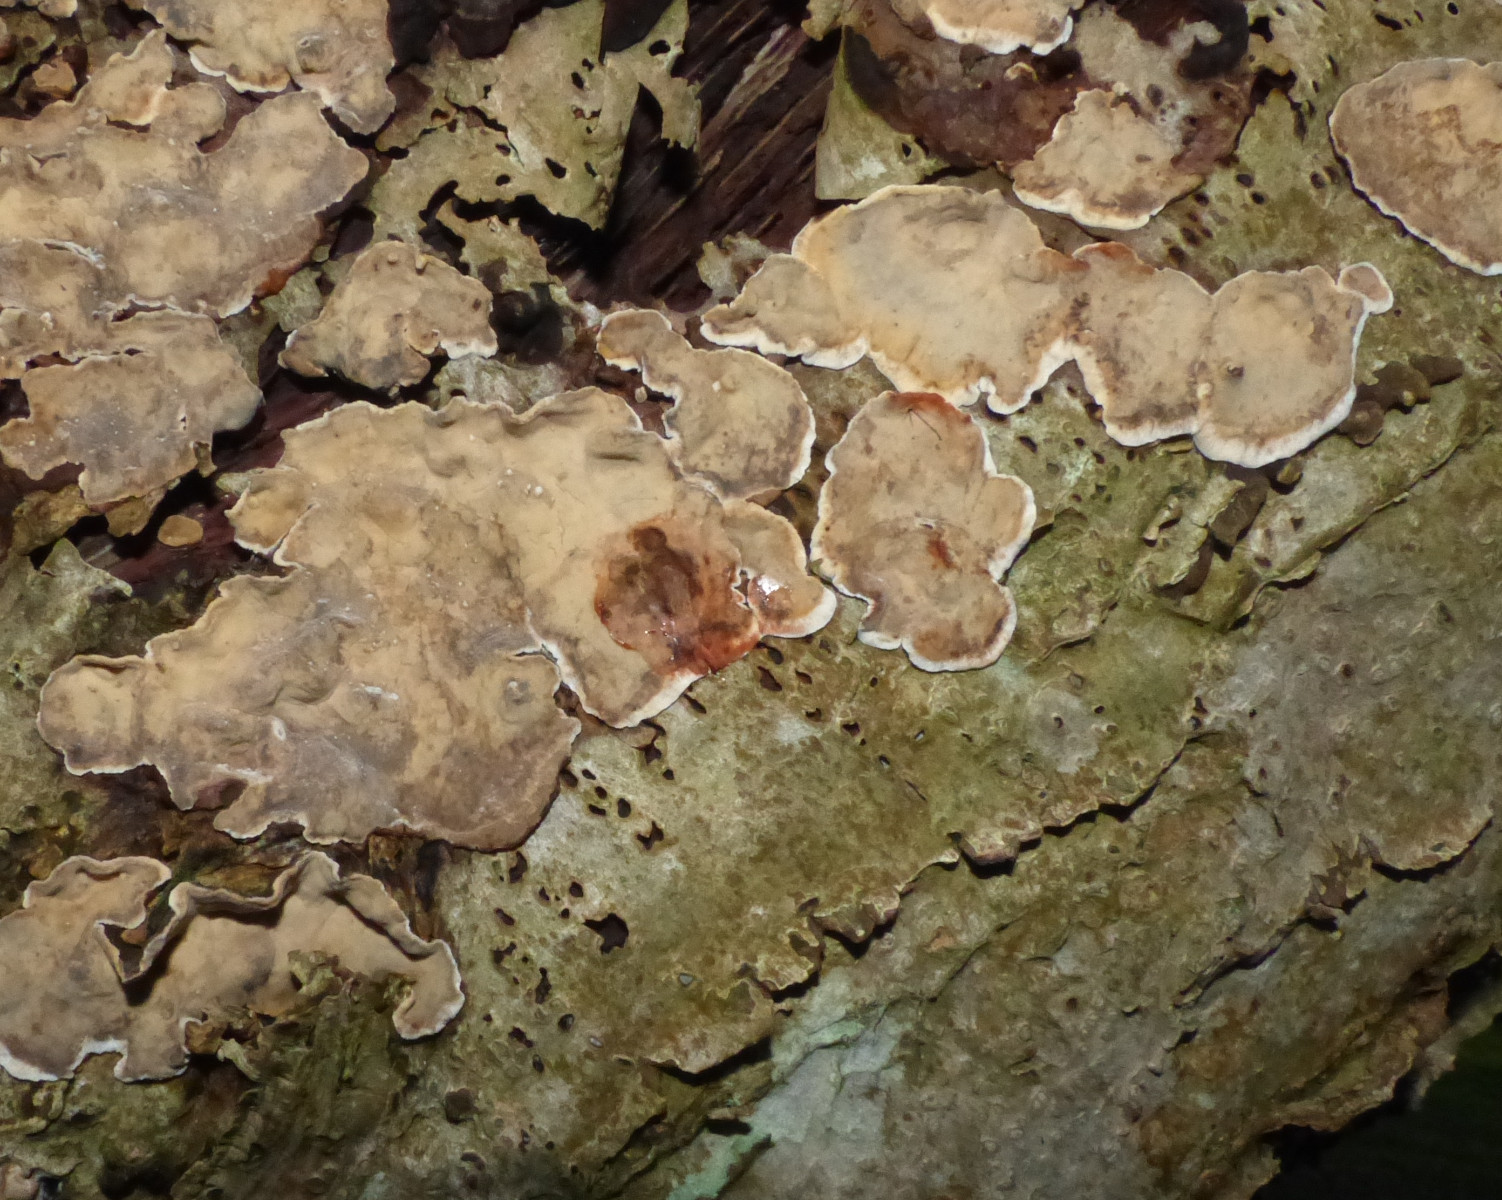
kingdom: Fungi
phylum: Basidiomycota
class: Agaricomycetes
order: Russulales
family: Stereaceae
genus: Stereum
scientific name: Stereum rugosum
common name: rynket lædersvamp
